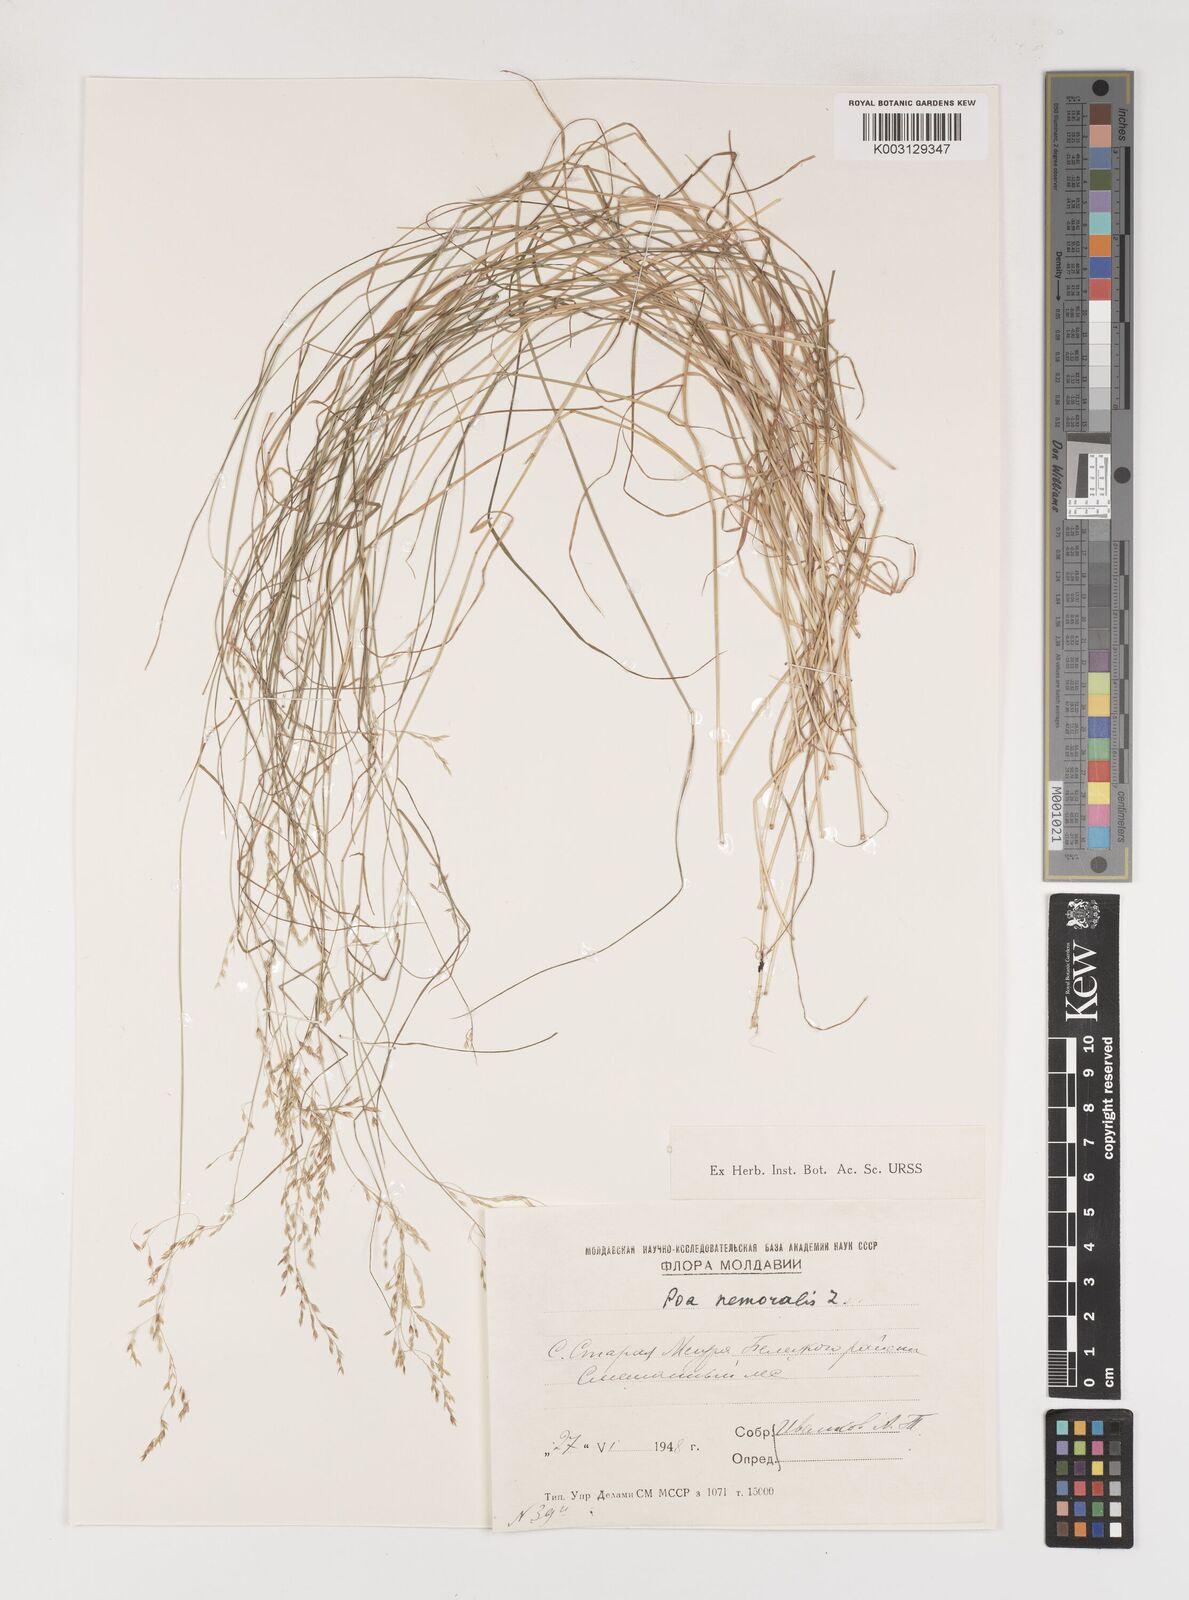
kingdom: Plantae
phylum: Tracheophyta
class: Liliopsida
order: Poales
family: Poaceae
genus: Poa
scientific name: Poa nemoralis
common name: Wood bluegrass
